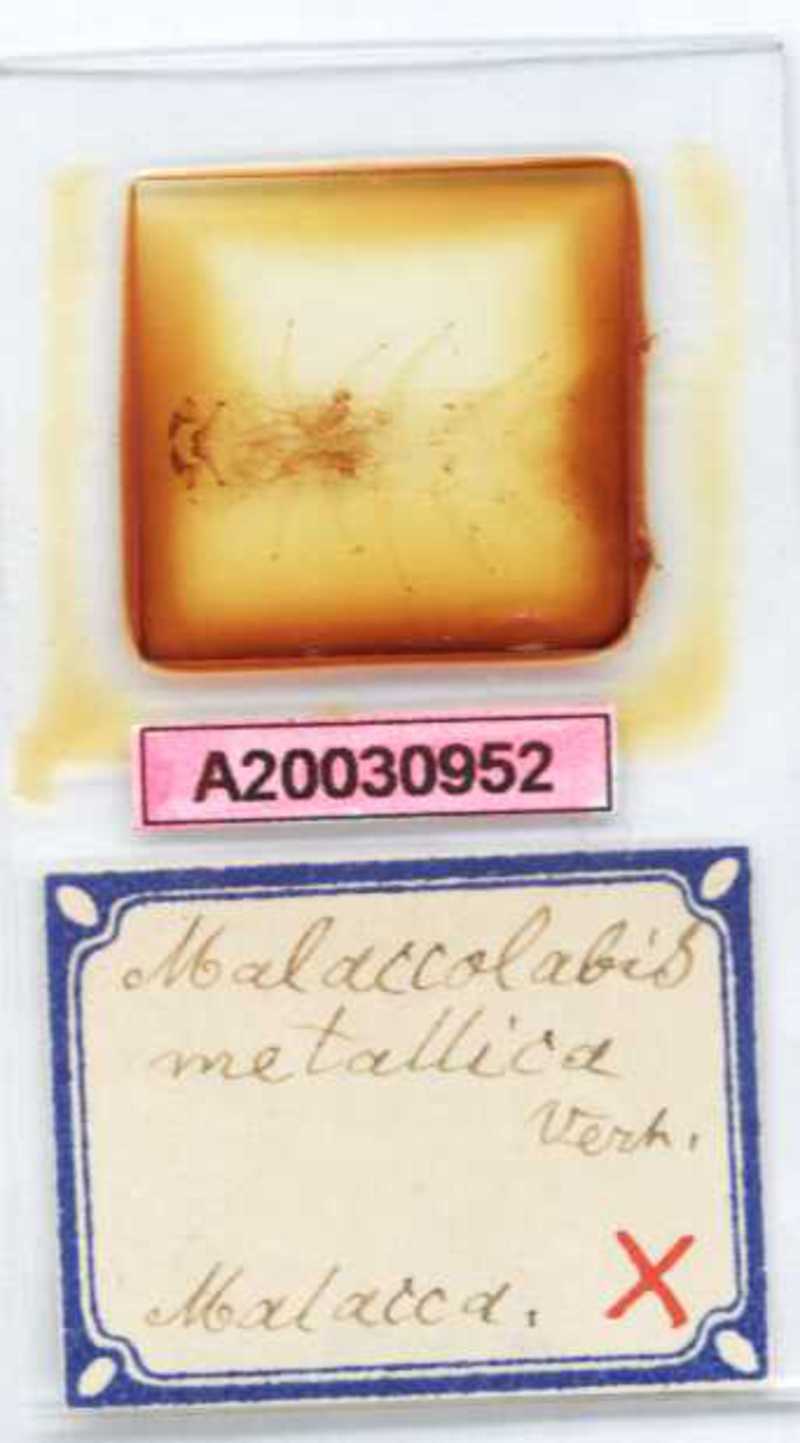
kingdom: Animalia
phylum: Arthropoda
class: Chilopoda
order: Scolopendromorpha
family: Scolopendridae
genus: Malaccolabis
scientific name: Malaccolabis metallica
